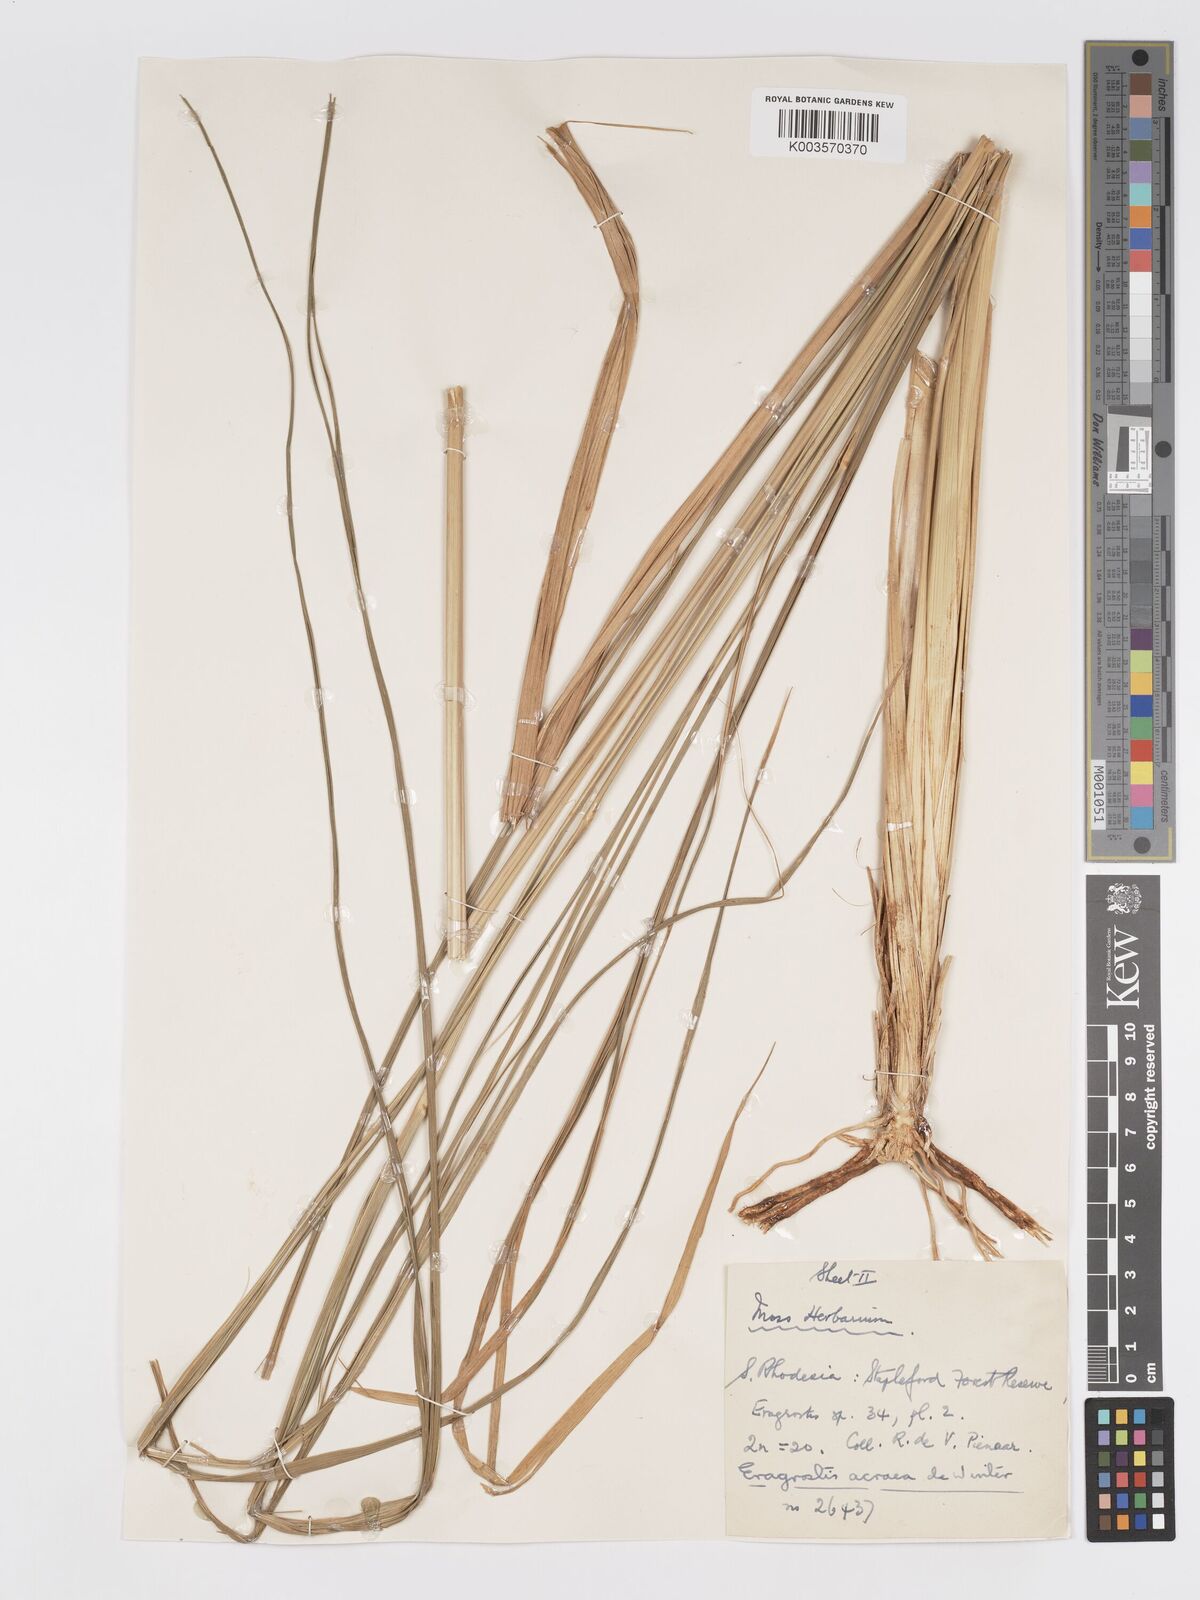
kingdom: Plantae
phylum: Tracheophyta
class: Liliopsida
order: Poales
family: Poaceae
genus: Eragrostis
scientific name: Eragrostis acraea
